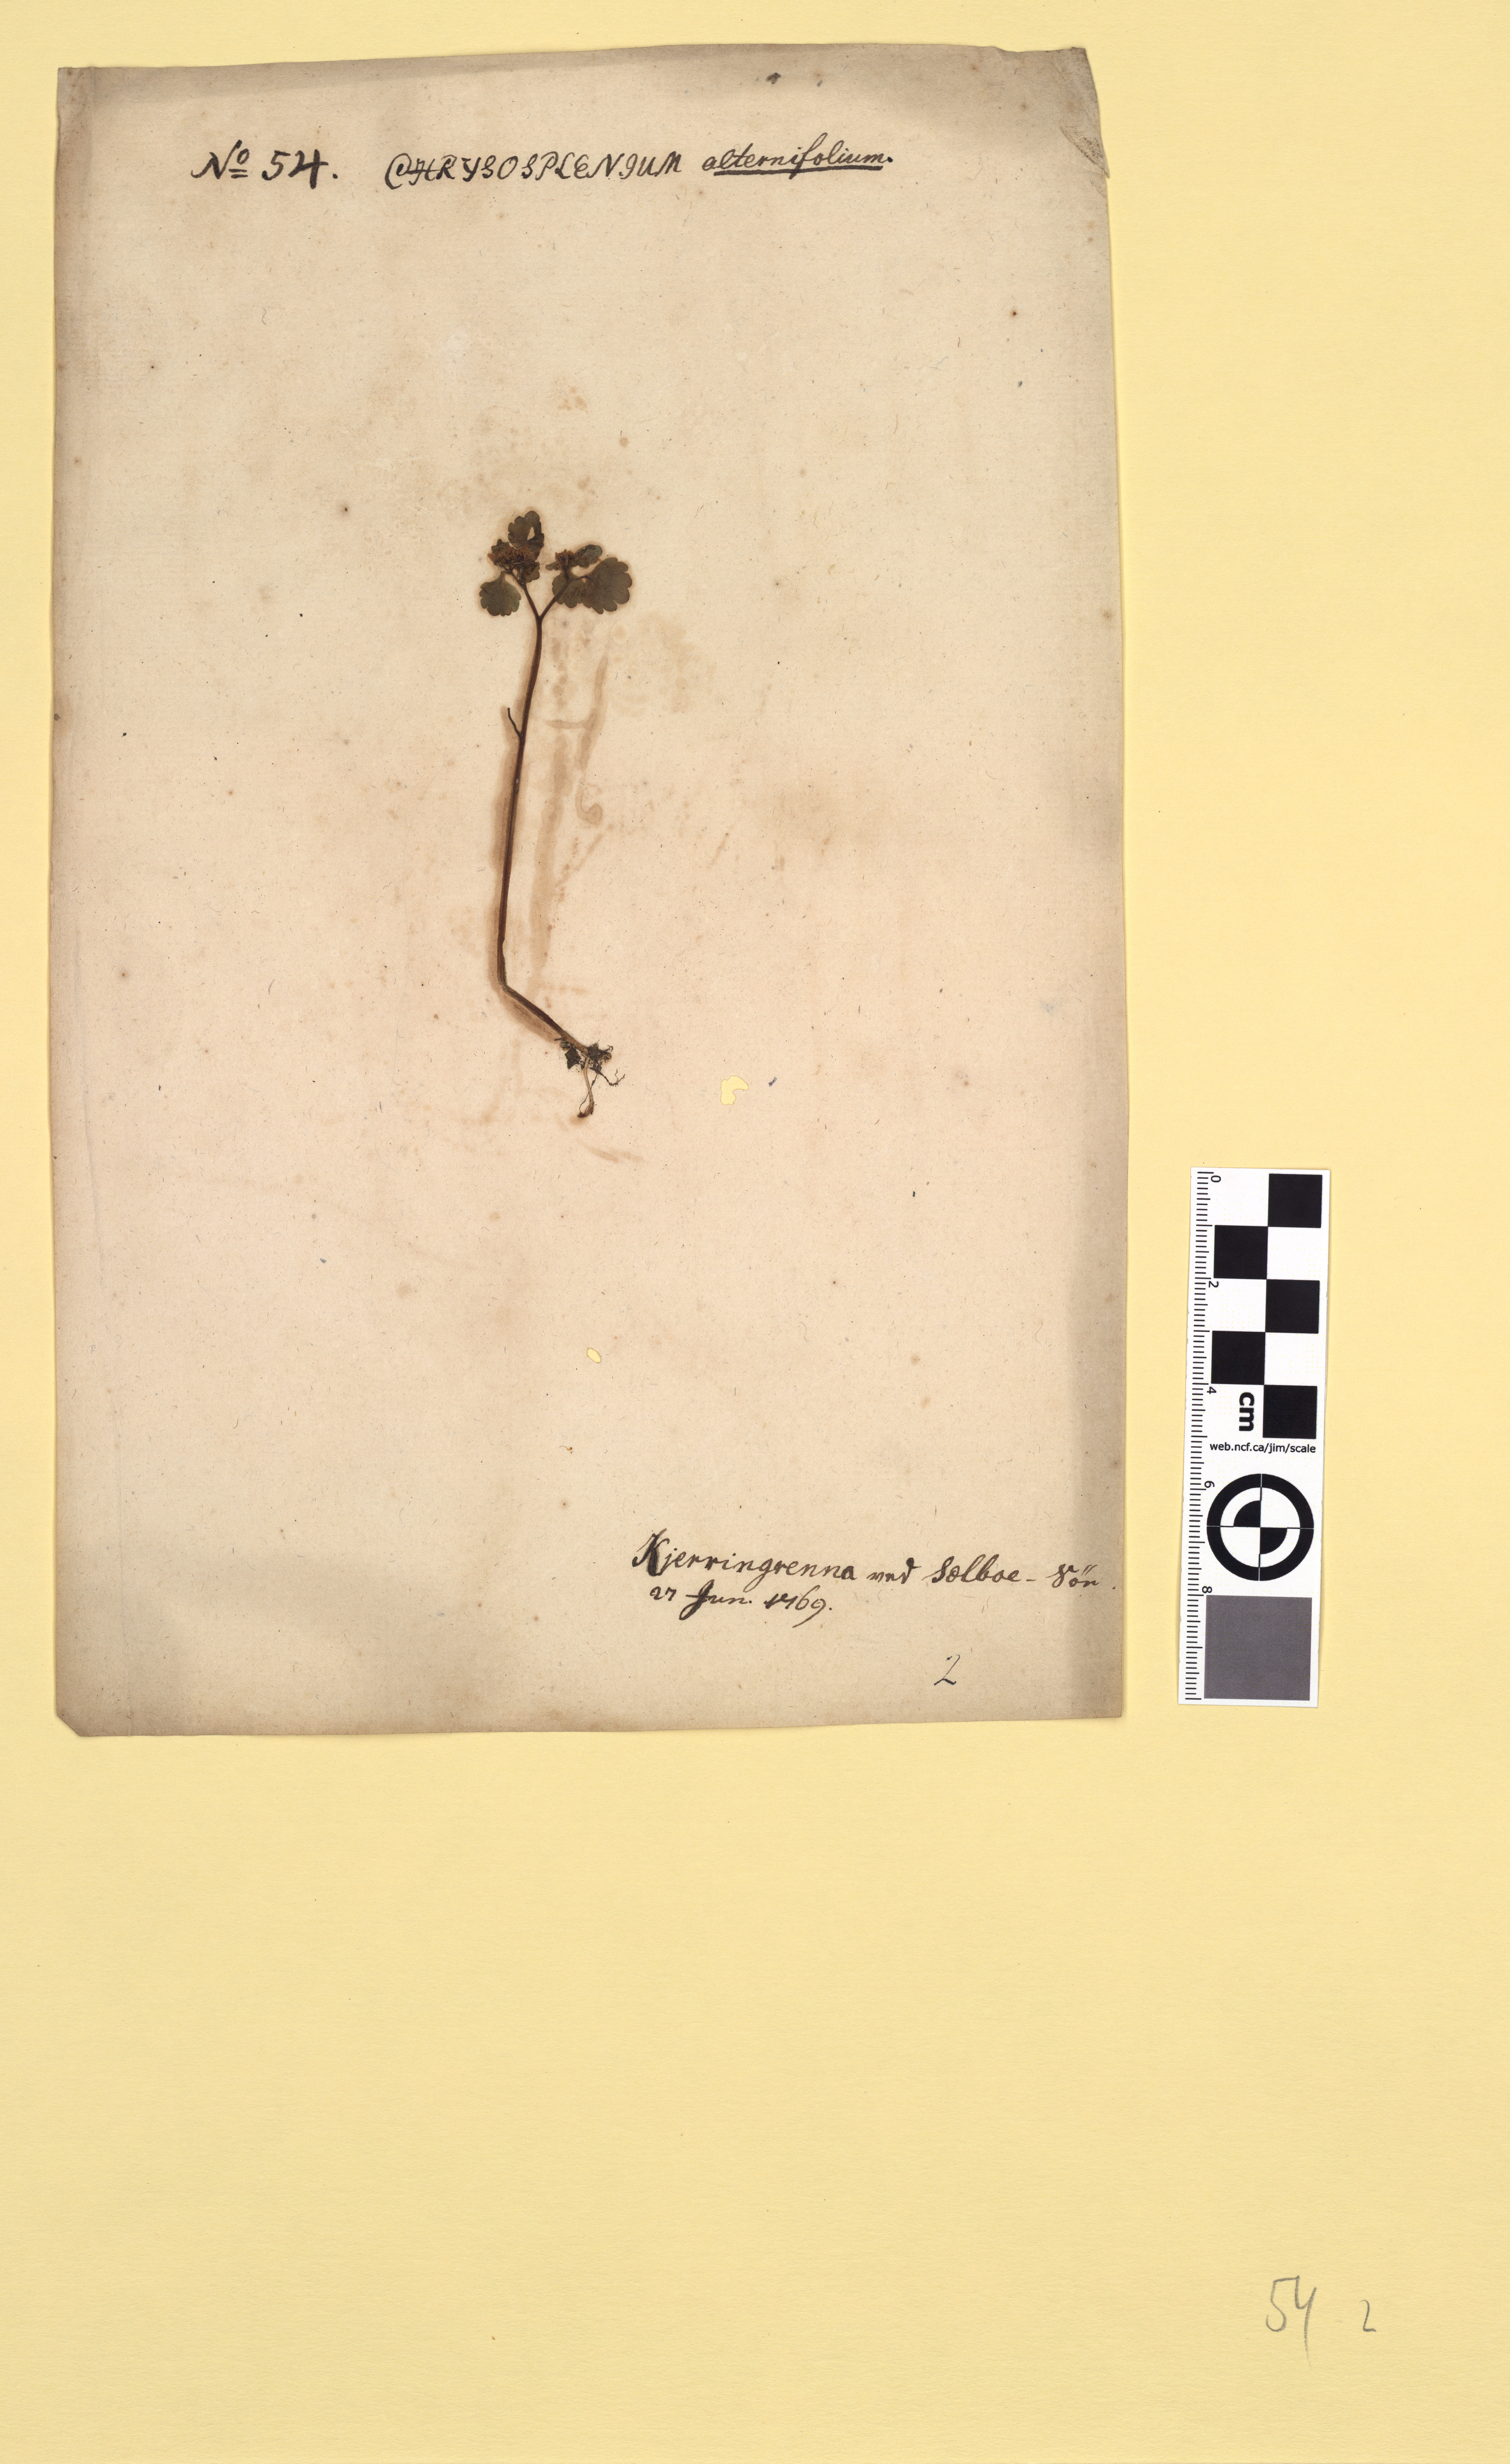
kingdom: Plantae
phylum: Tracheophyta
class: Magnoliopsida
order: Saxifragales
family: Saxifragaceae
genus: Chrysosplenium
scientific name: Chrysosplenium alternifolium
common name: Alternate-leaved golden-saxifrage
